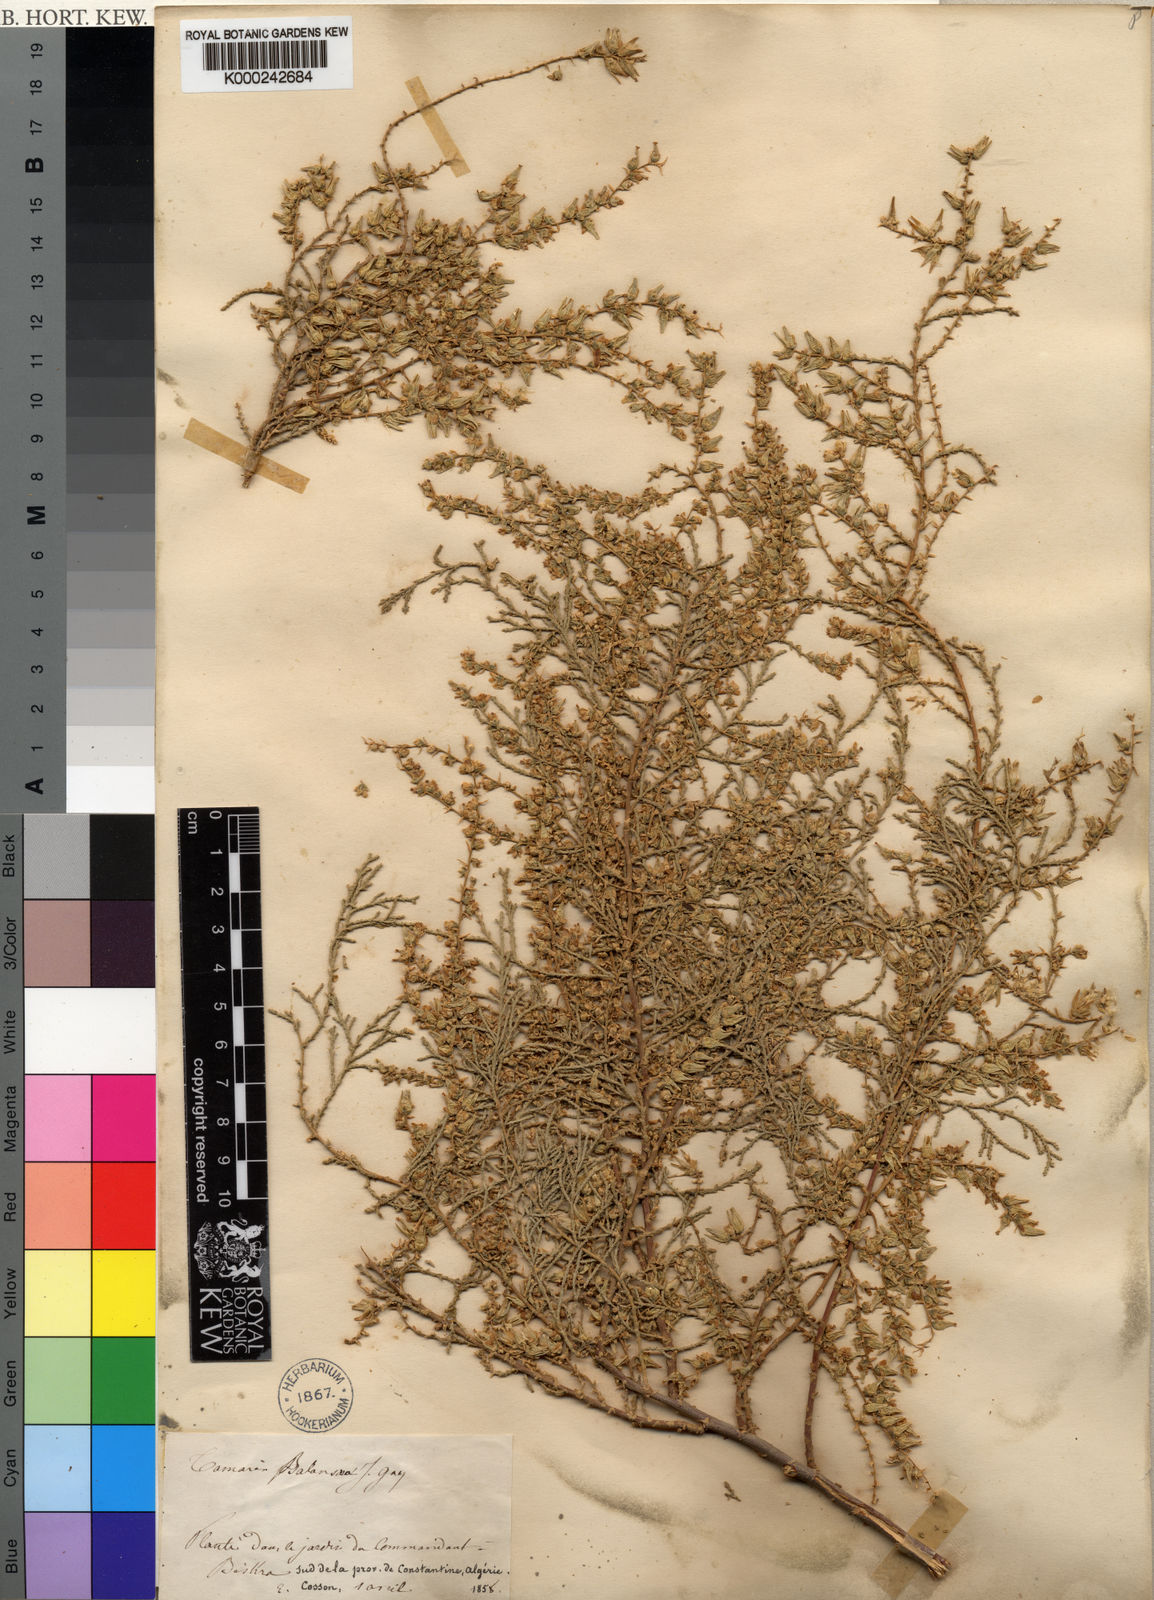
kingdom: Plantae
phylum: Tracheophyta
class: Magnoliopsida
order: Caryophyllales
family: Tamaricaceae
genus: Tamarix
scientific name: Tamarix
